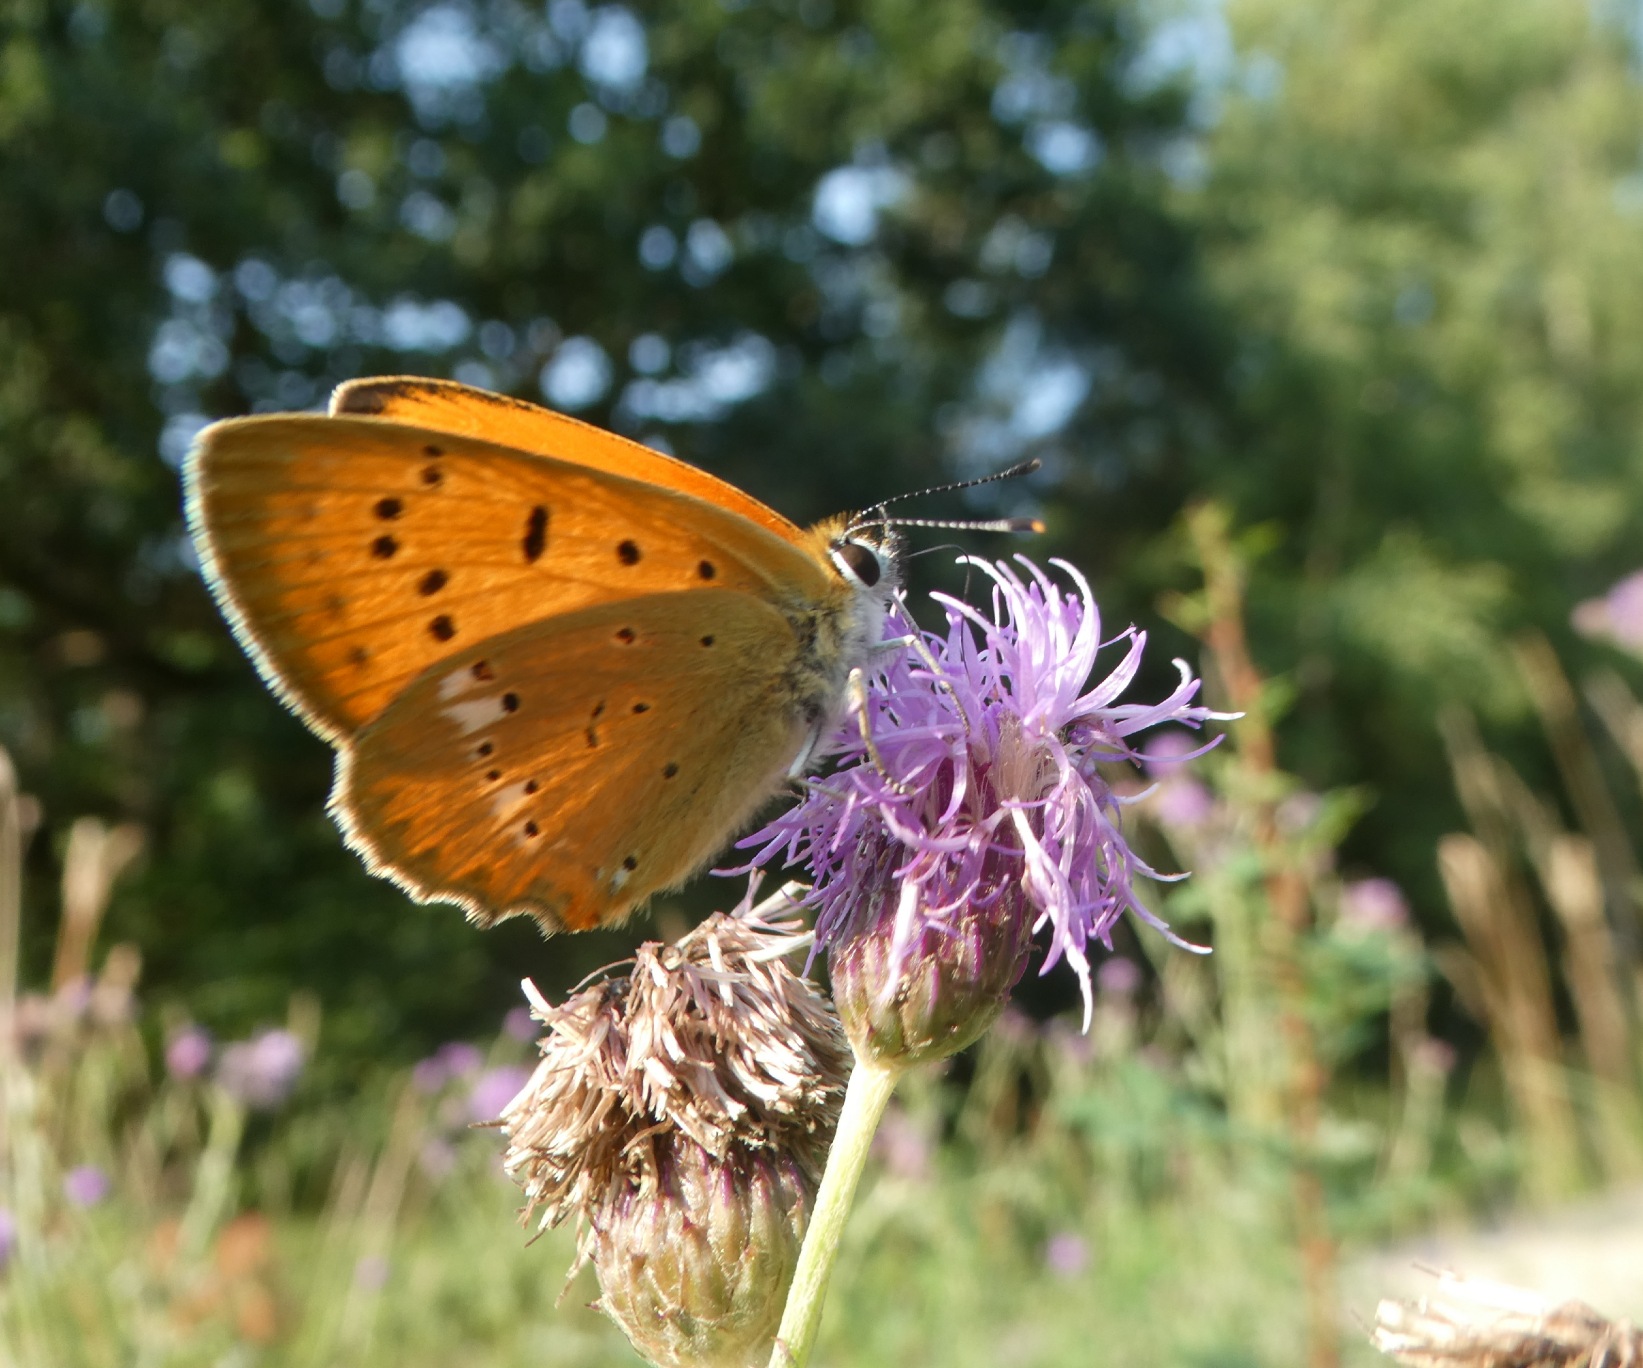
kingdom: Animalia
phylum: Arthropoda
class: Insecta
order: Lepidoptera
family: Lycaenidae
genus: Lycaena
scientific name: Lycaena virgaureae
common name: Dukatsommerfugl
